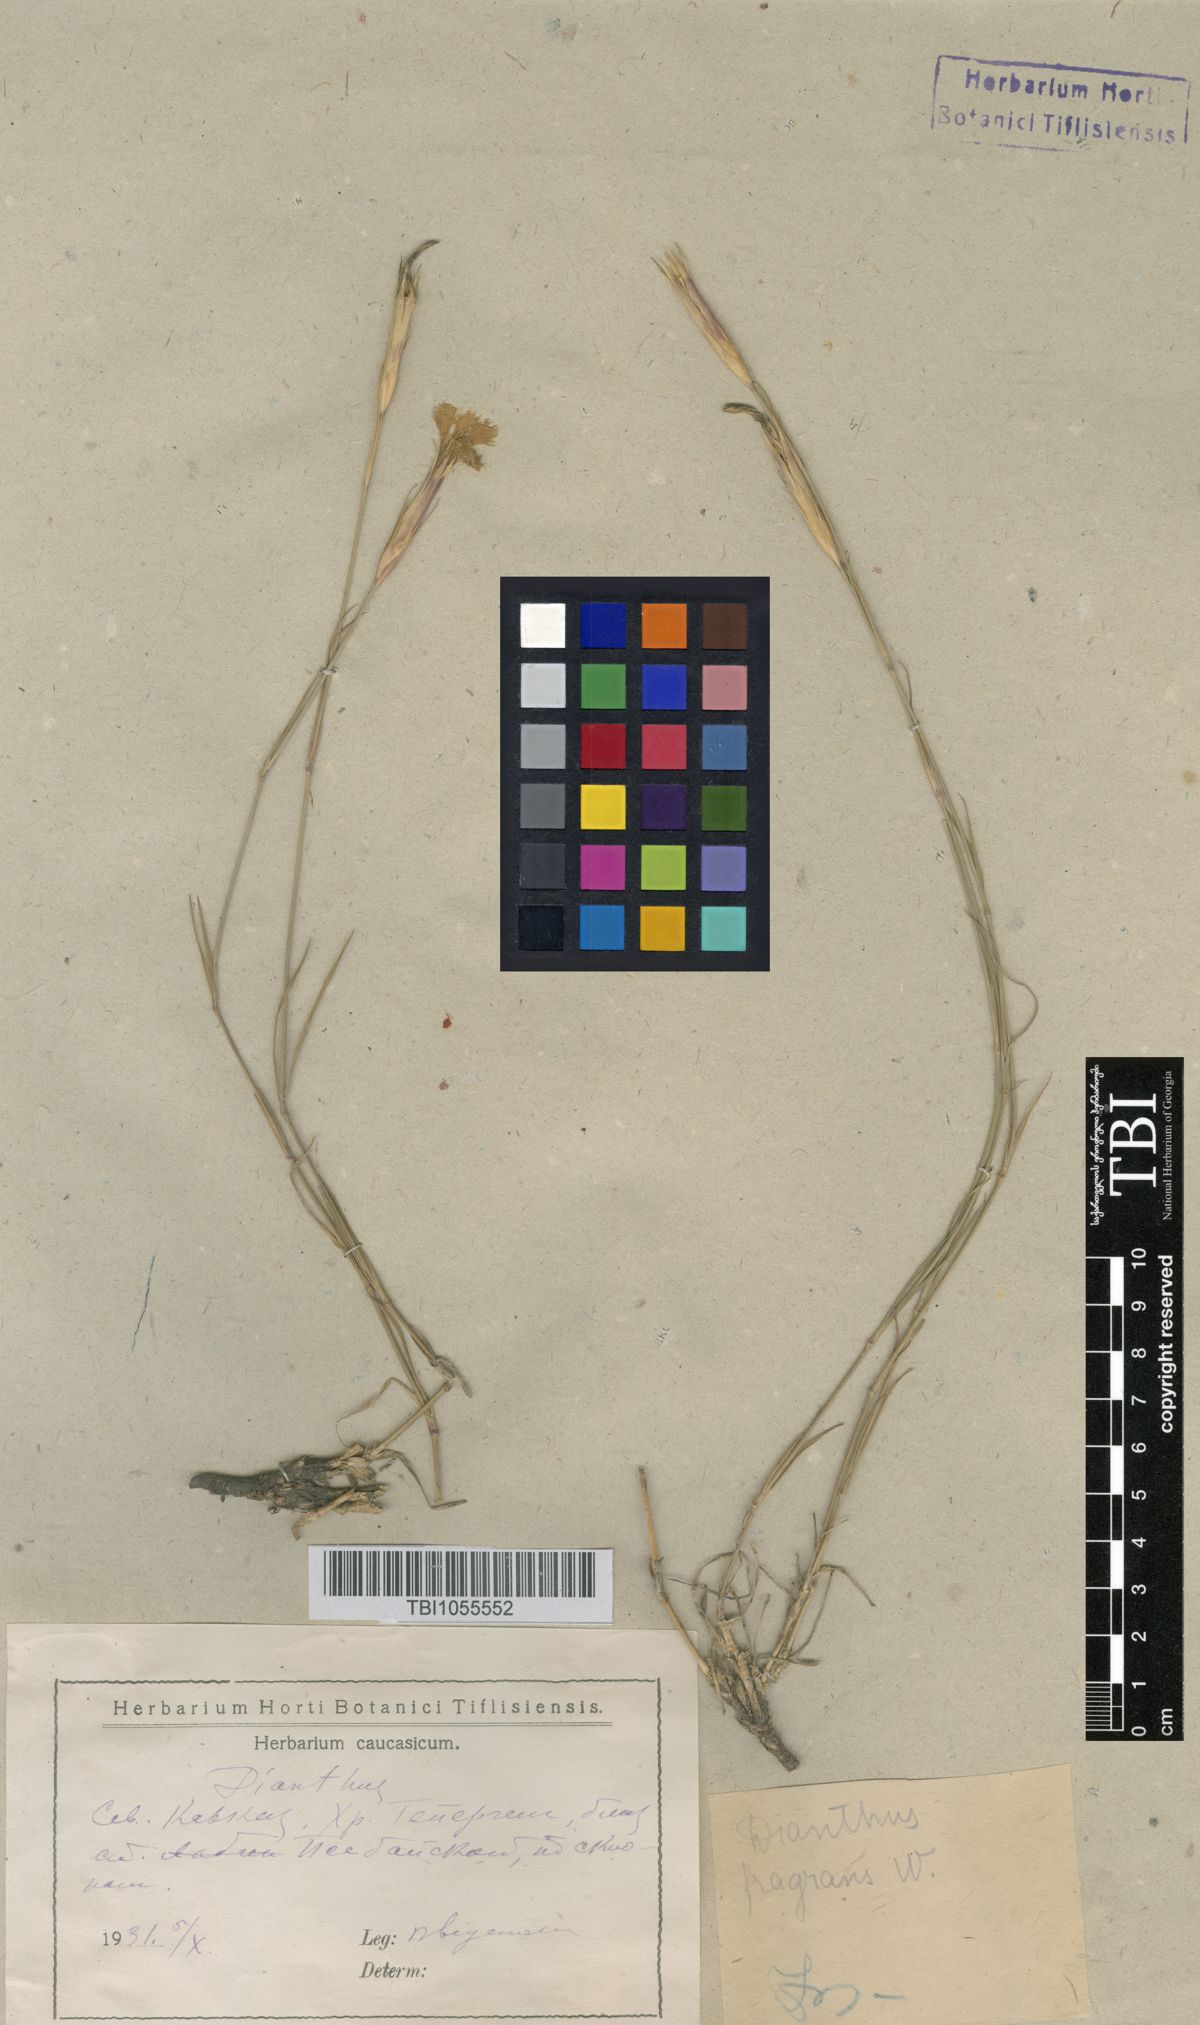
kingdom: Plantae
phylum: Tracheophyta
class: Magnoliopsida
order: Caryophyllales
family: Caryophyllaceae
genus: Dianthus
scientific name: Dianthus
